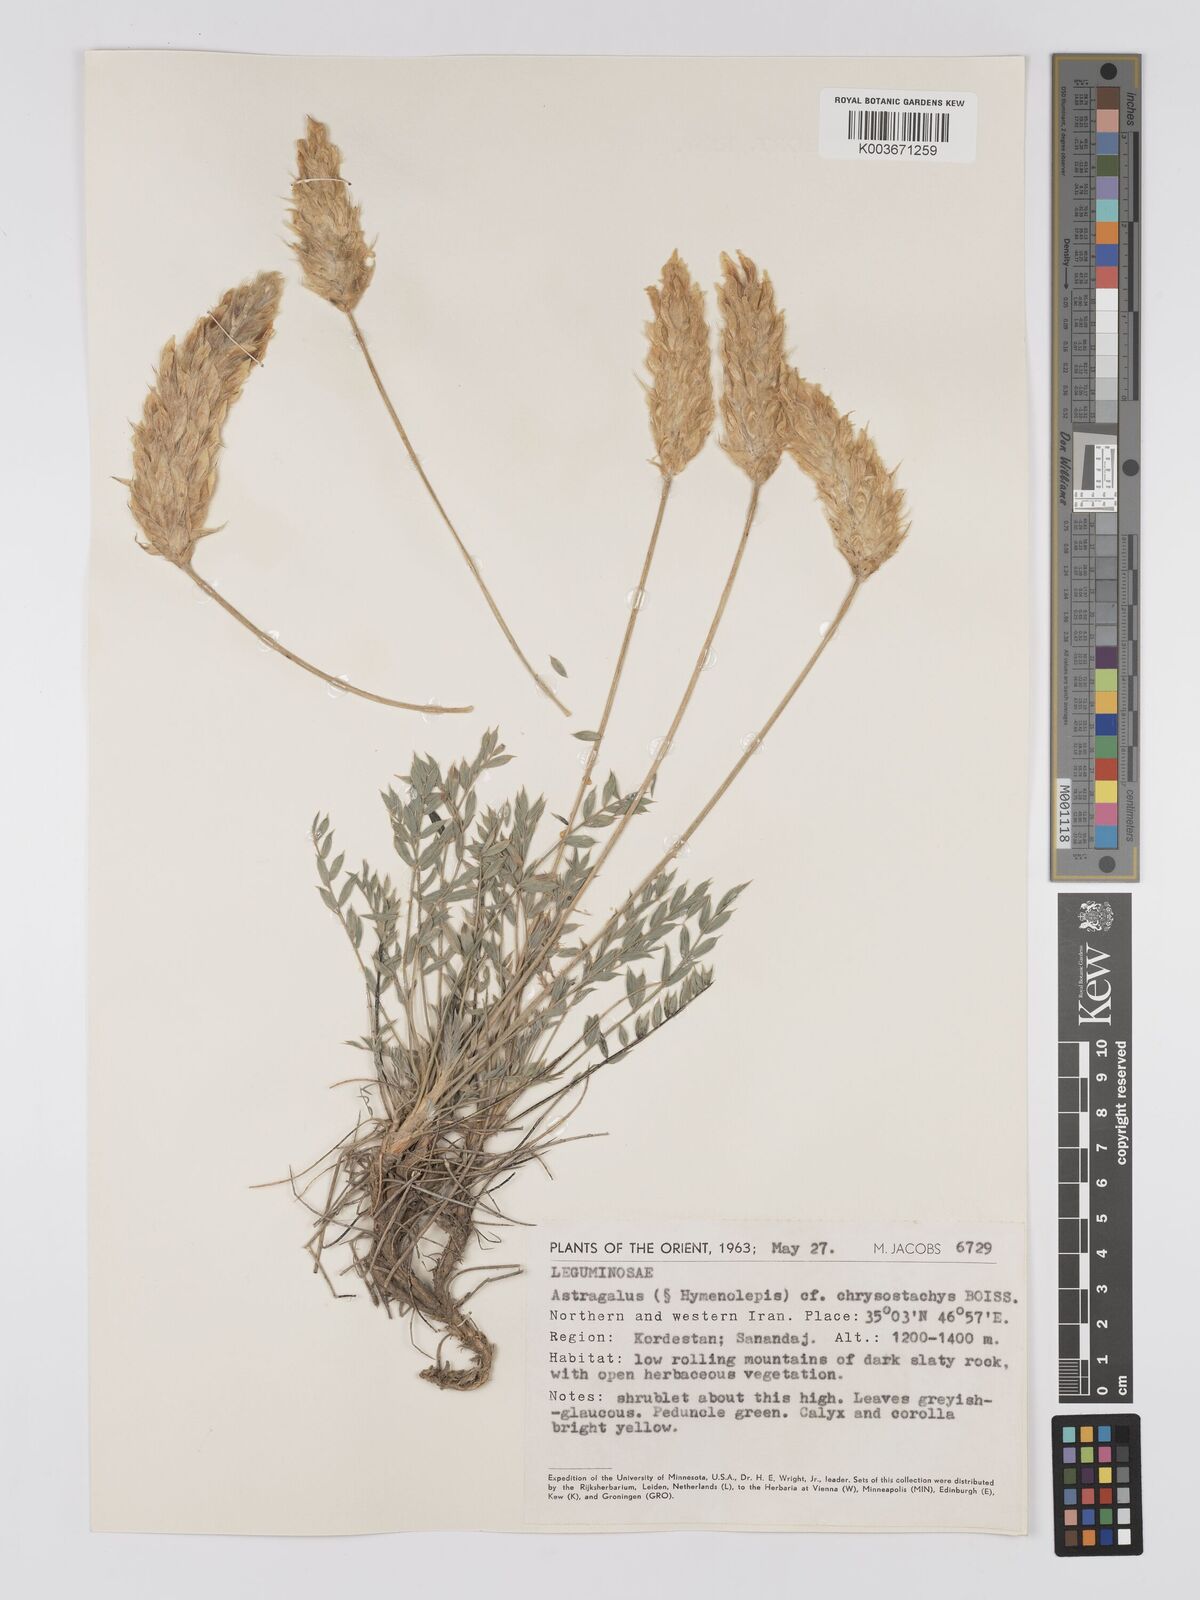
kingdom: Plantae
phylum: Tracheophyta
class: Magnoliopsida
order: Fabales
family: Fabaceae
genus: Astragalus
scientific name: Astragalus chrysostachys
